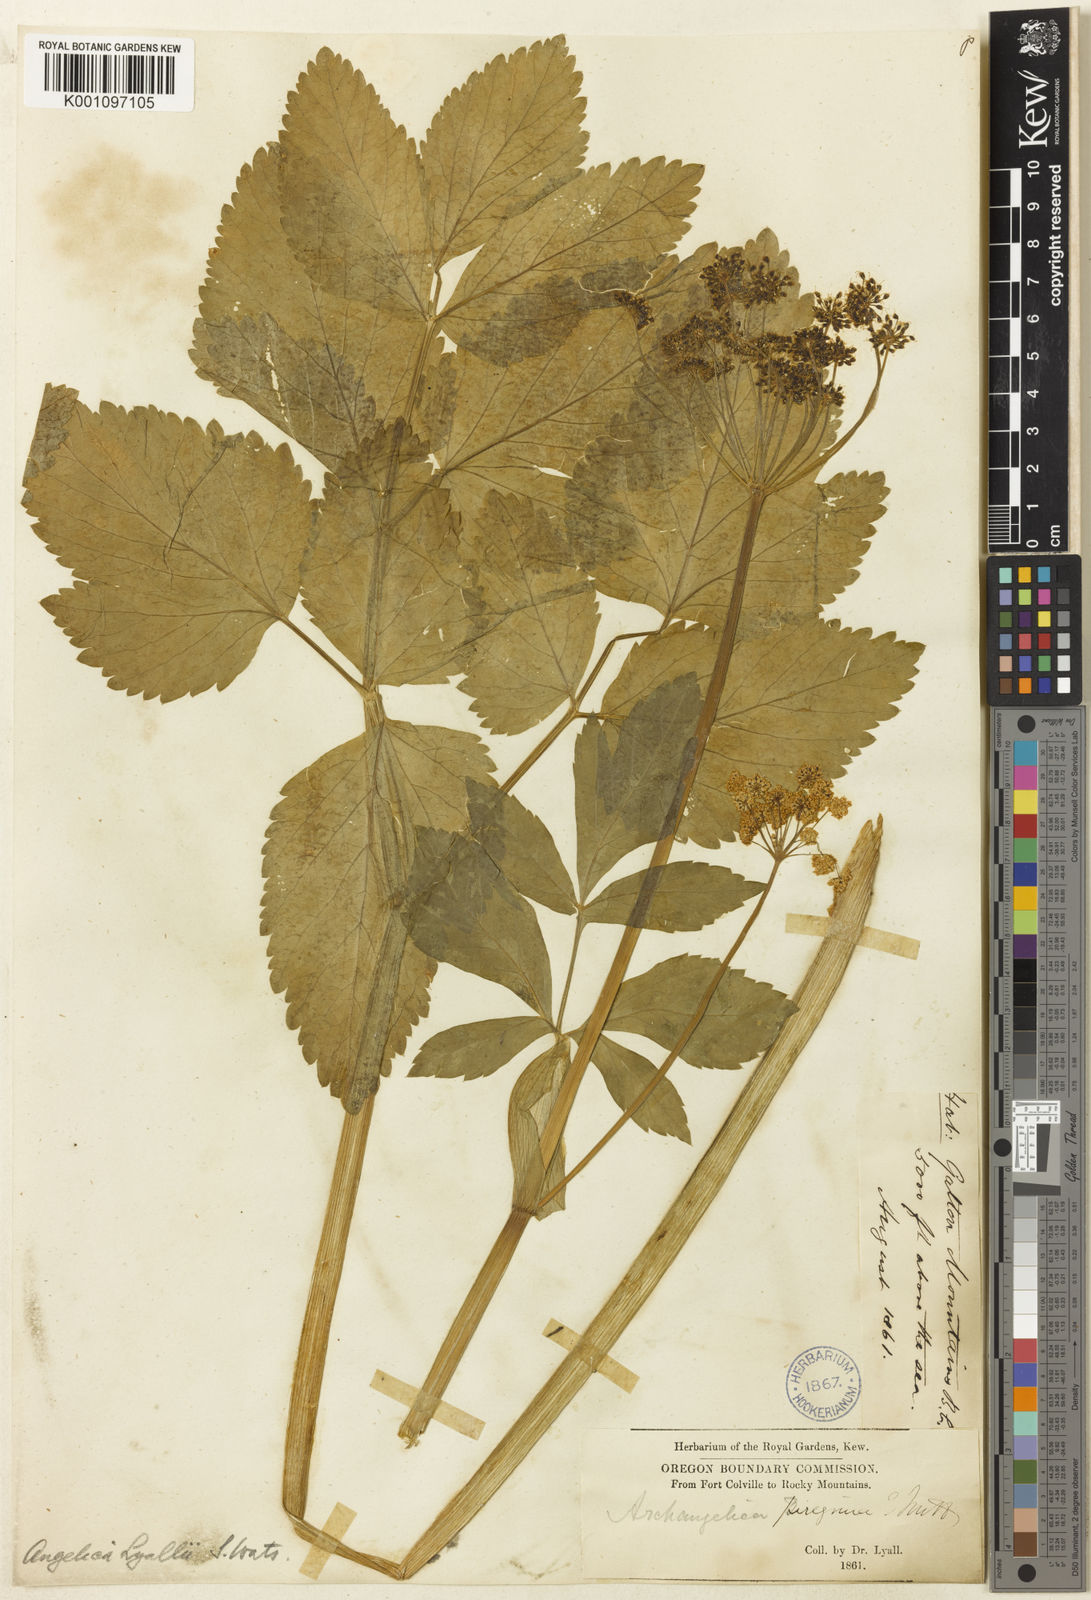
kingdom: Plantae
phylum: Tracheophyta
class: Magnoliopsida
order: Apiales
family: Apiaceae
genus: Angelica
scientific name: Angelica
